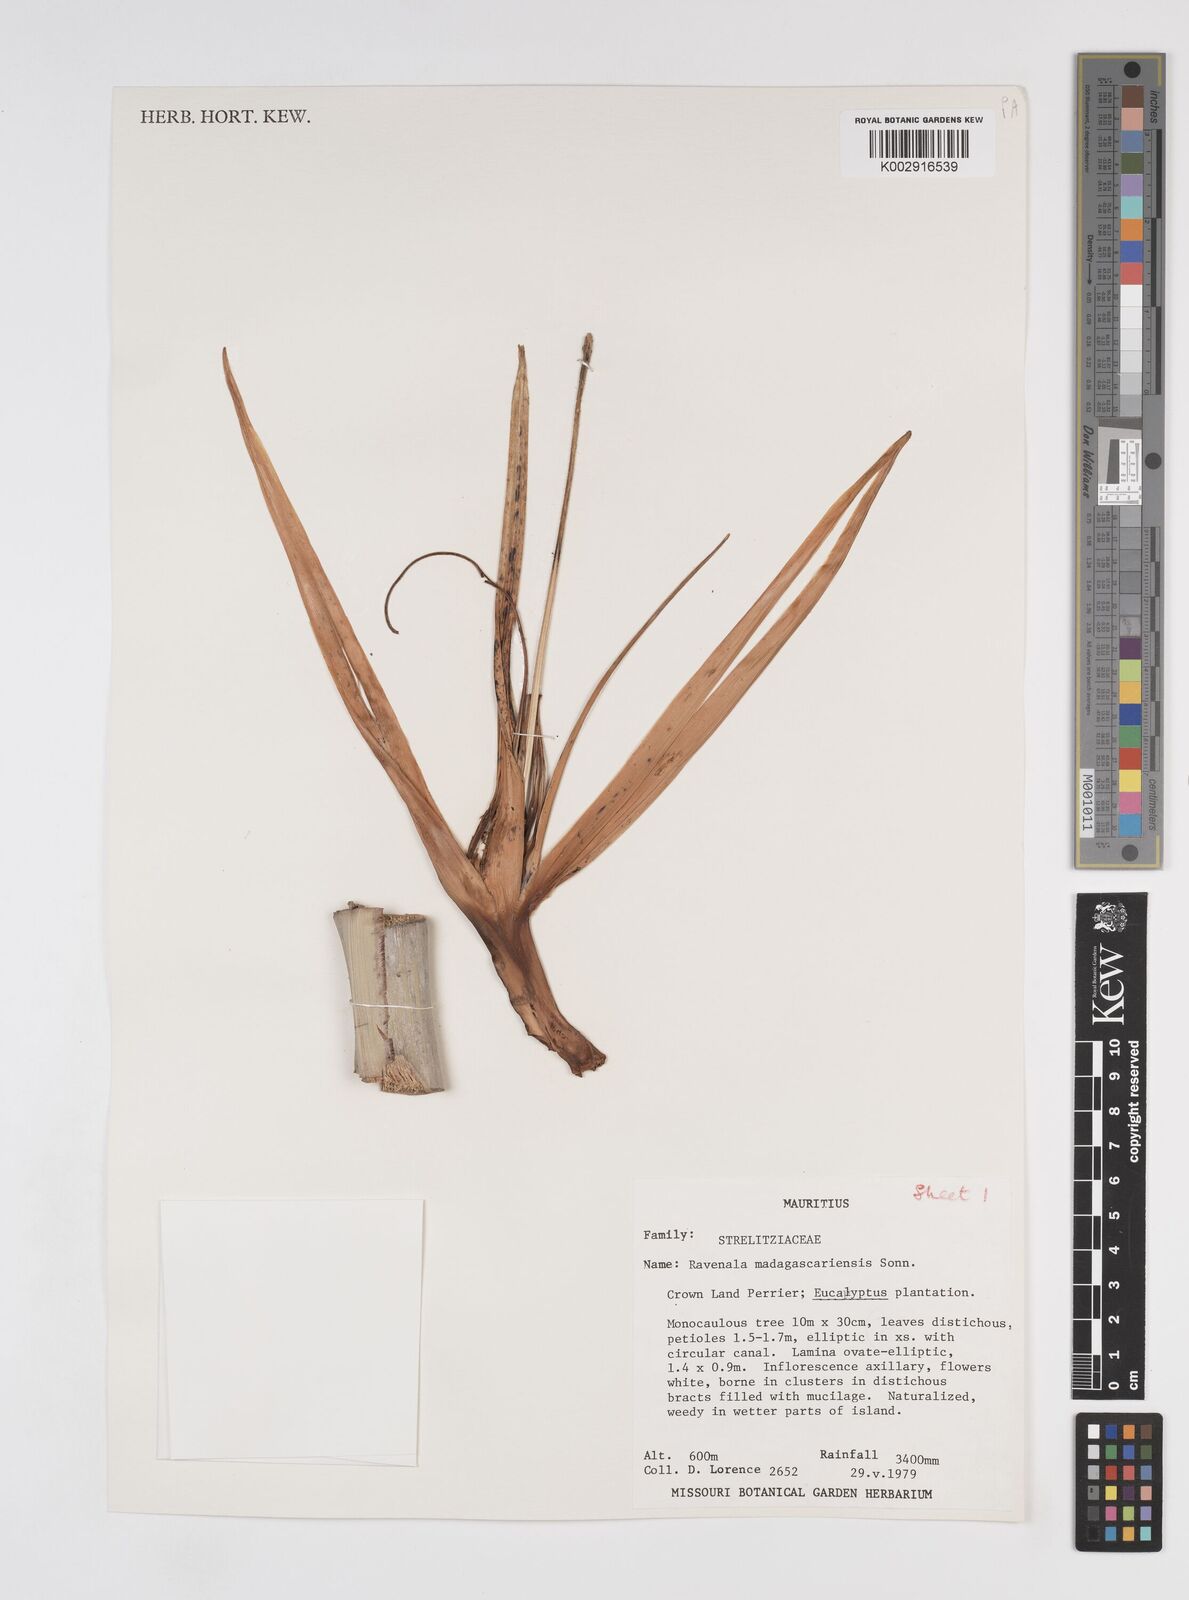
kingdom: Plantae
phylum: Tracheophyta
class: Liliopsida
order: Zingiberales
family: Strelitziaceae
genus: Ravenala
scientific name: Ravenala madagascariensis
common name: Traveler's-palm
